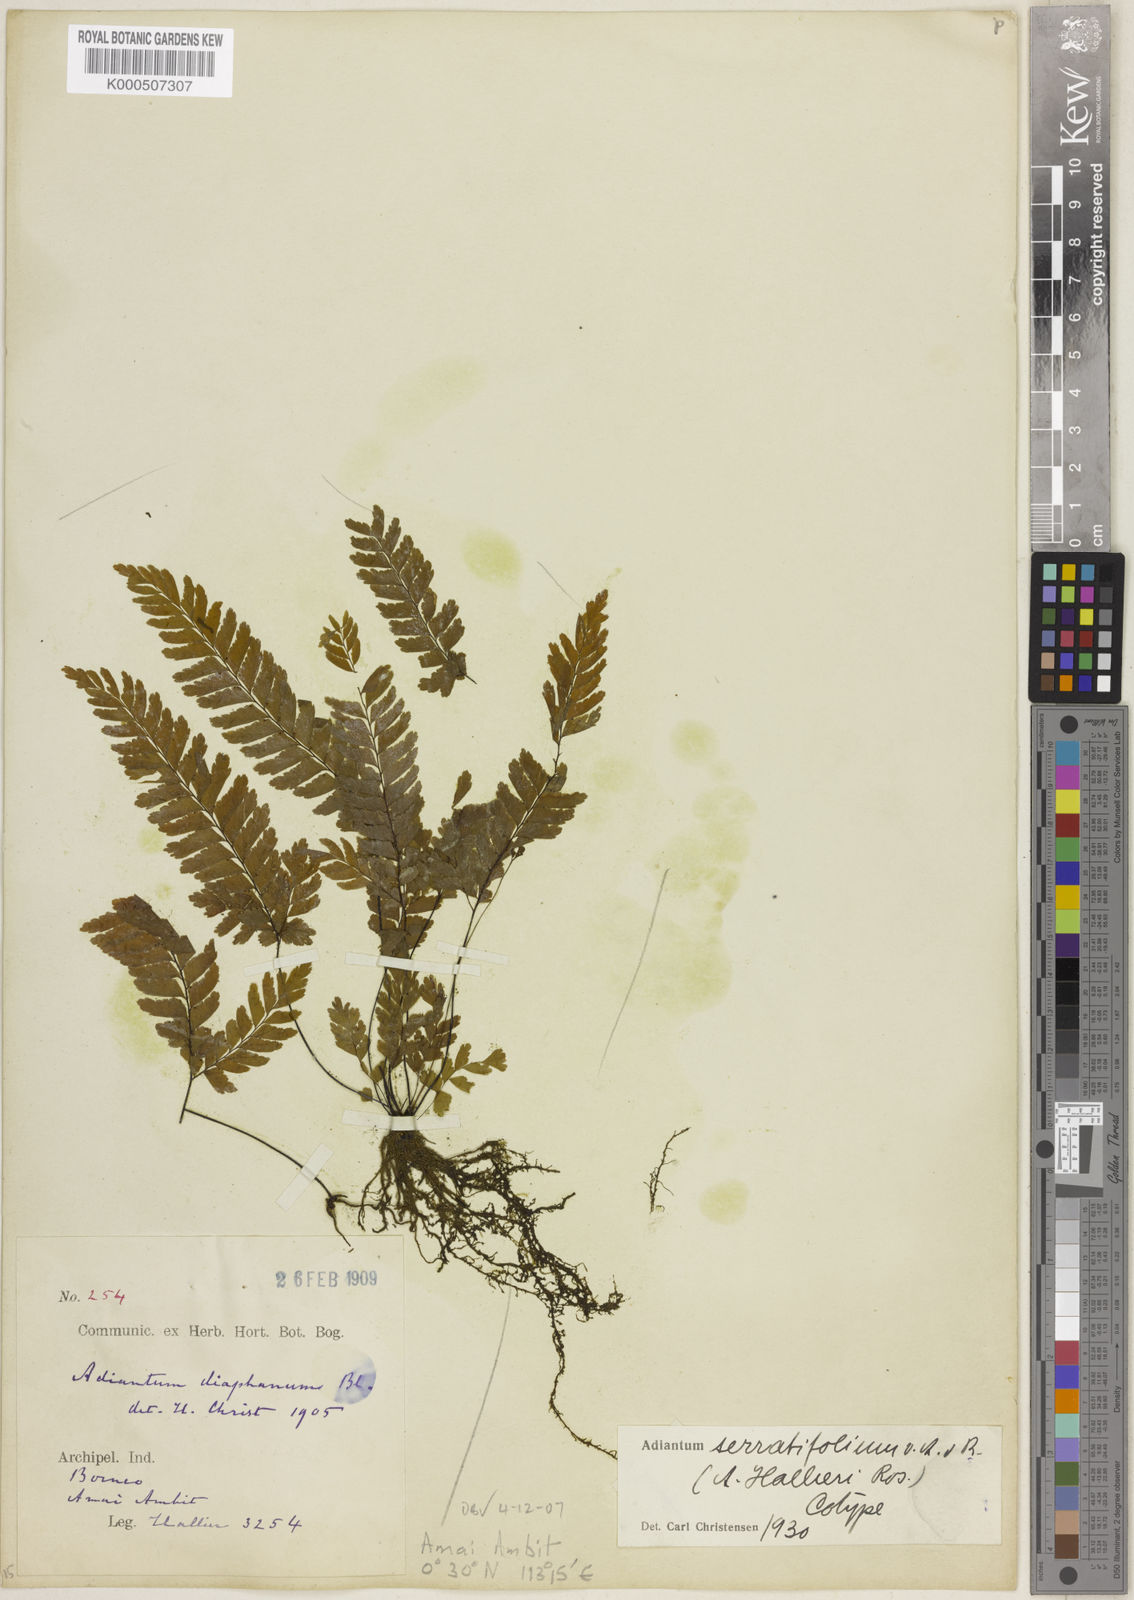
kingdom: Plantae
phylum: Tracheophyta
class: Polypodiopsida
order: Polypodiales
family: Pteridaceae
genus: Adiantum
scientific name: Adiantum serratifolium
